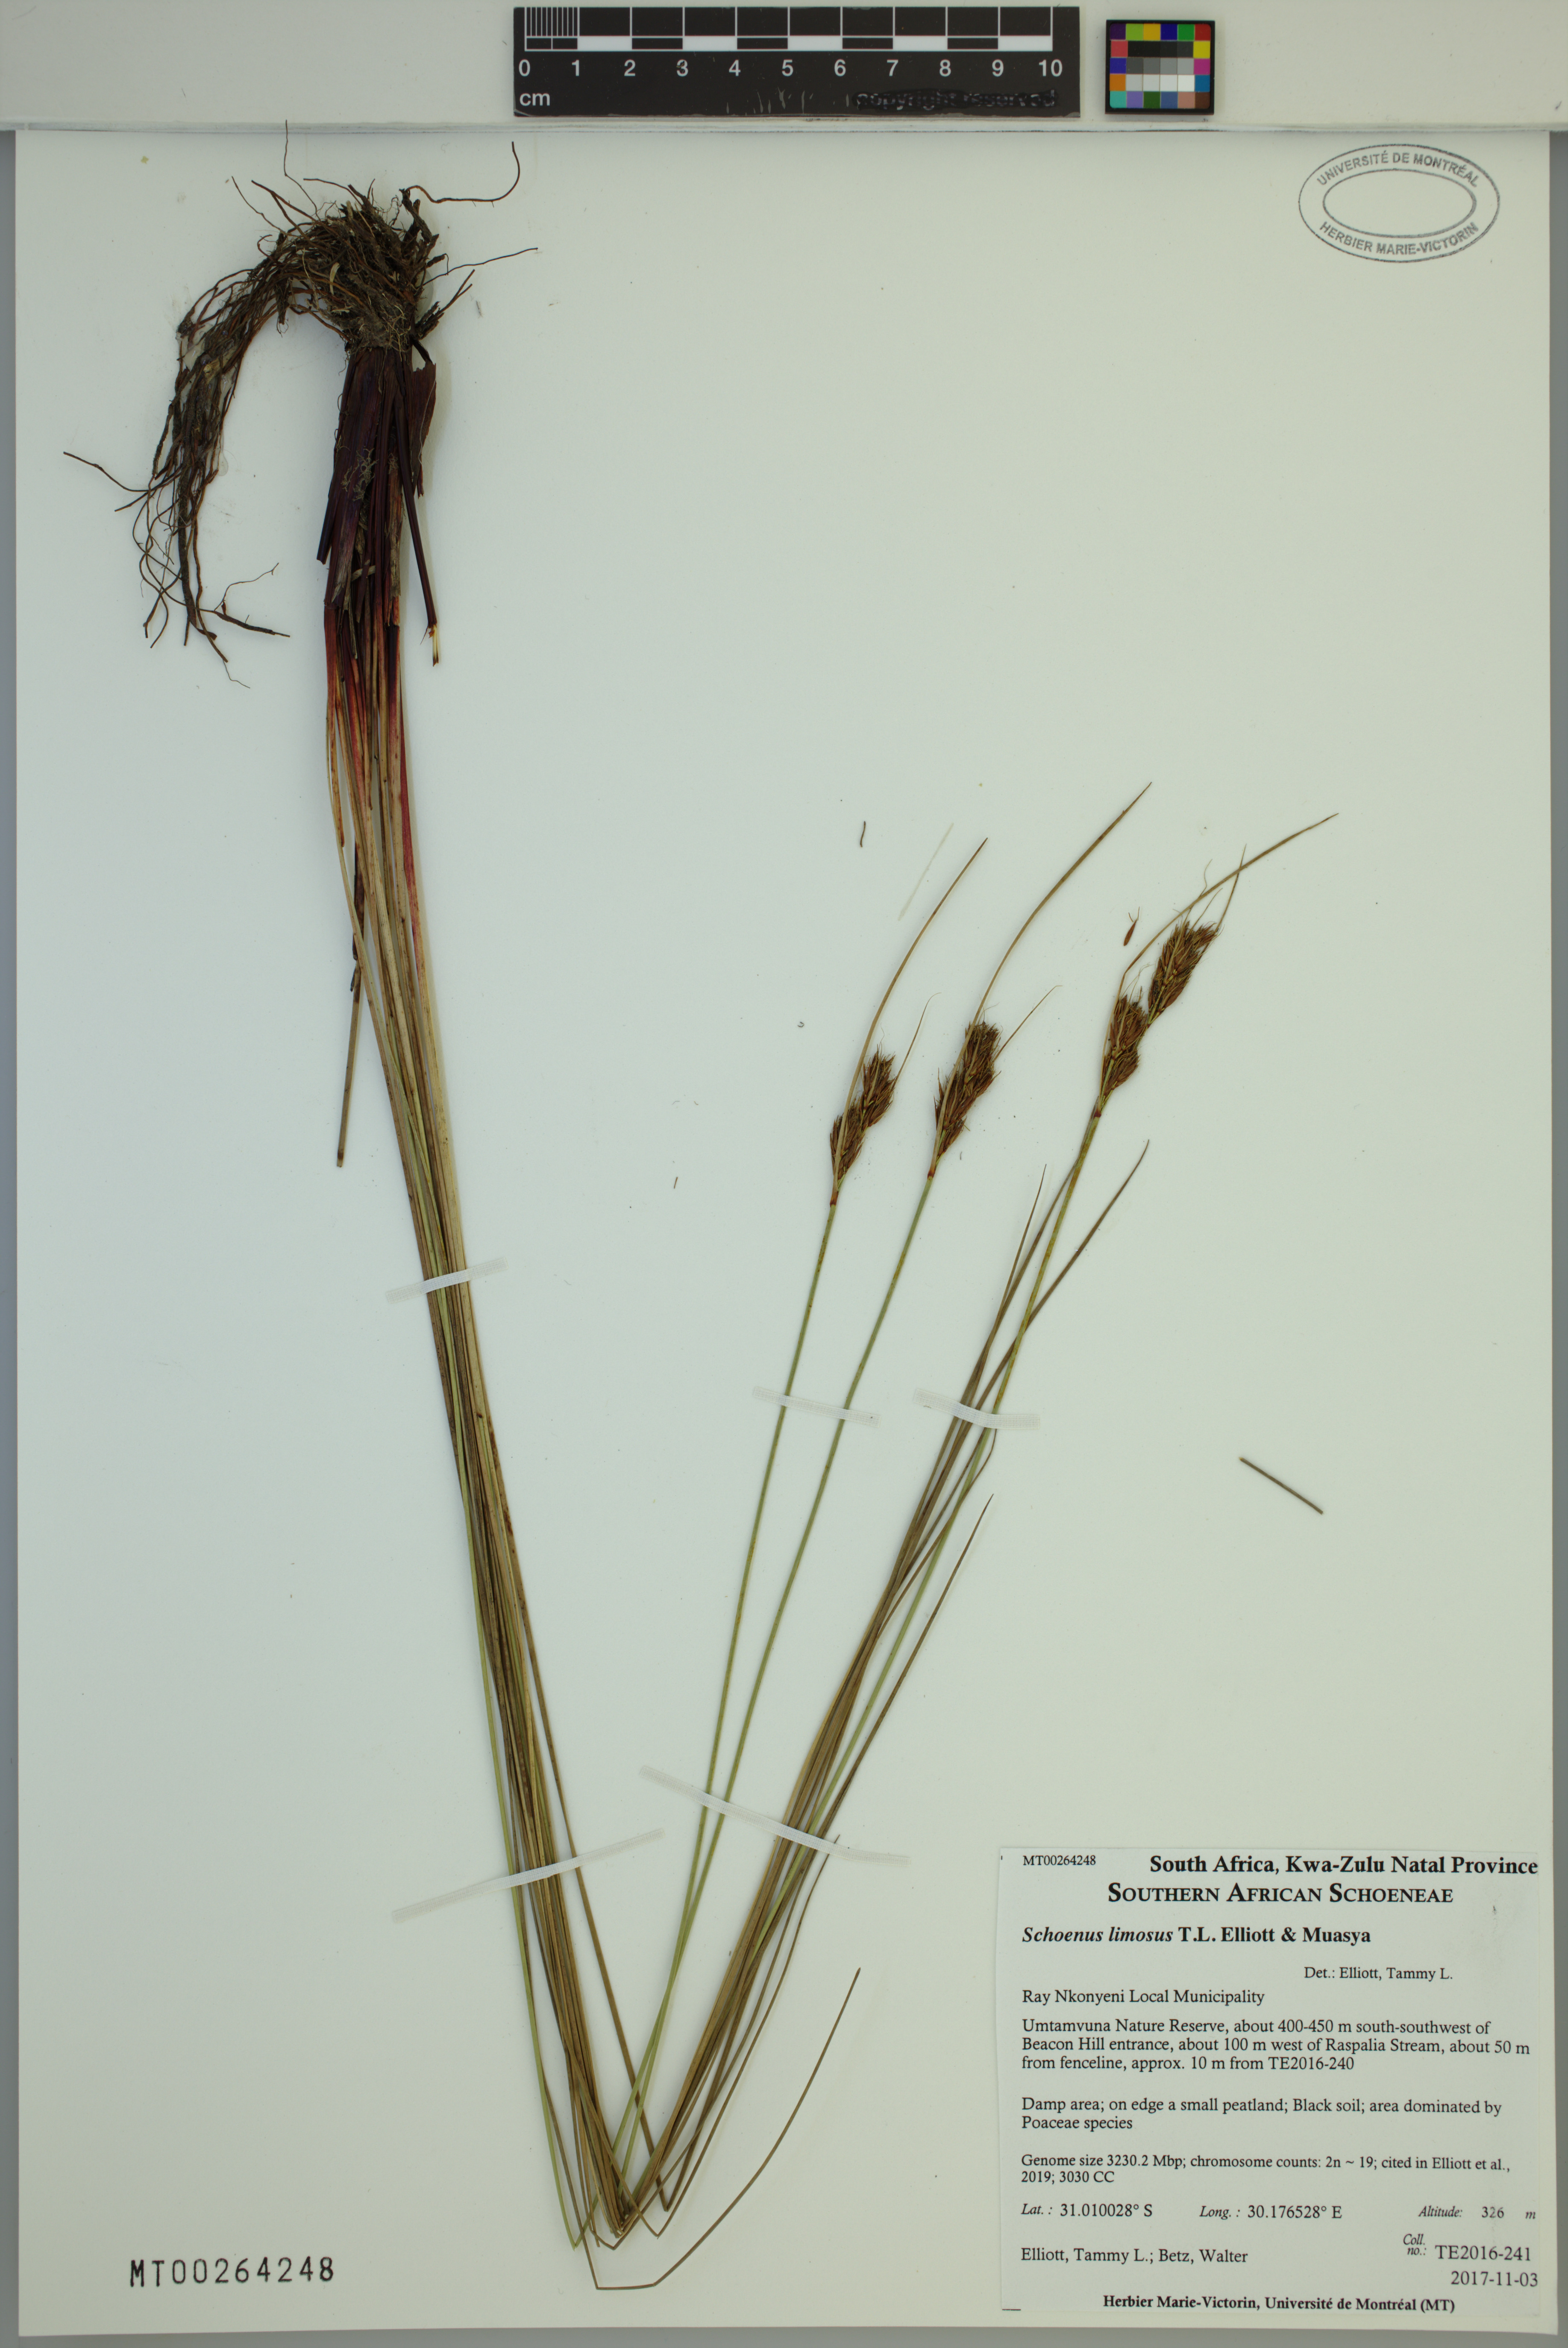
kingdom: Plantae
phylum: Tracheophyta
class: Liliopsida
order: Poales
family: Cyperaceae
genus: Schoenus
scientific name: Schoenus limosus
